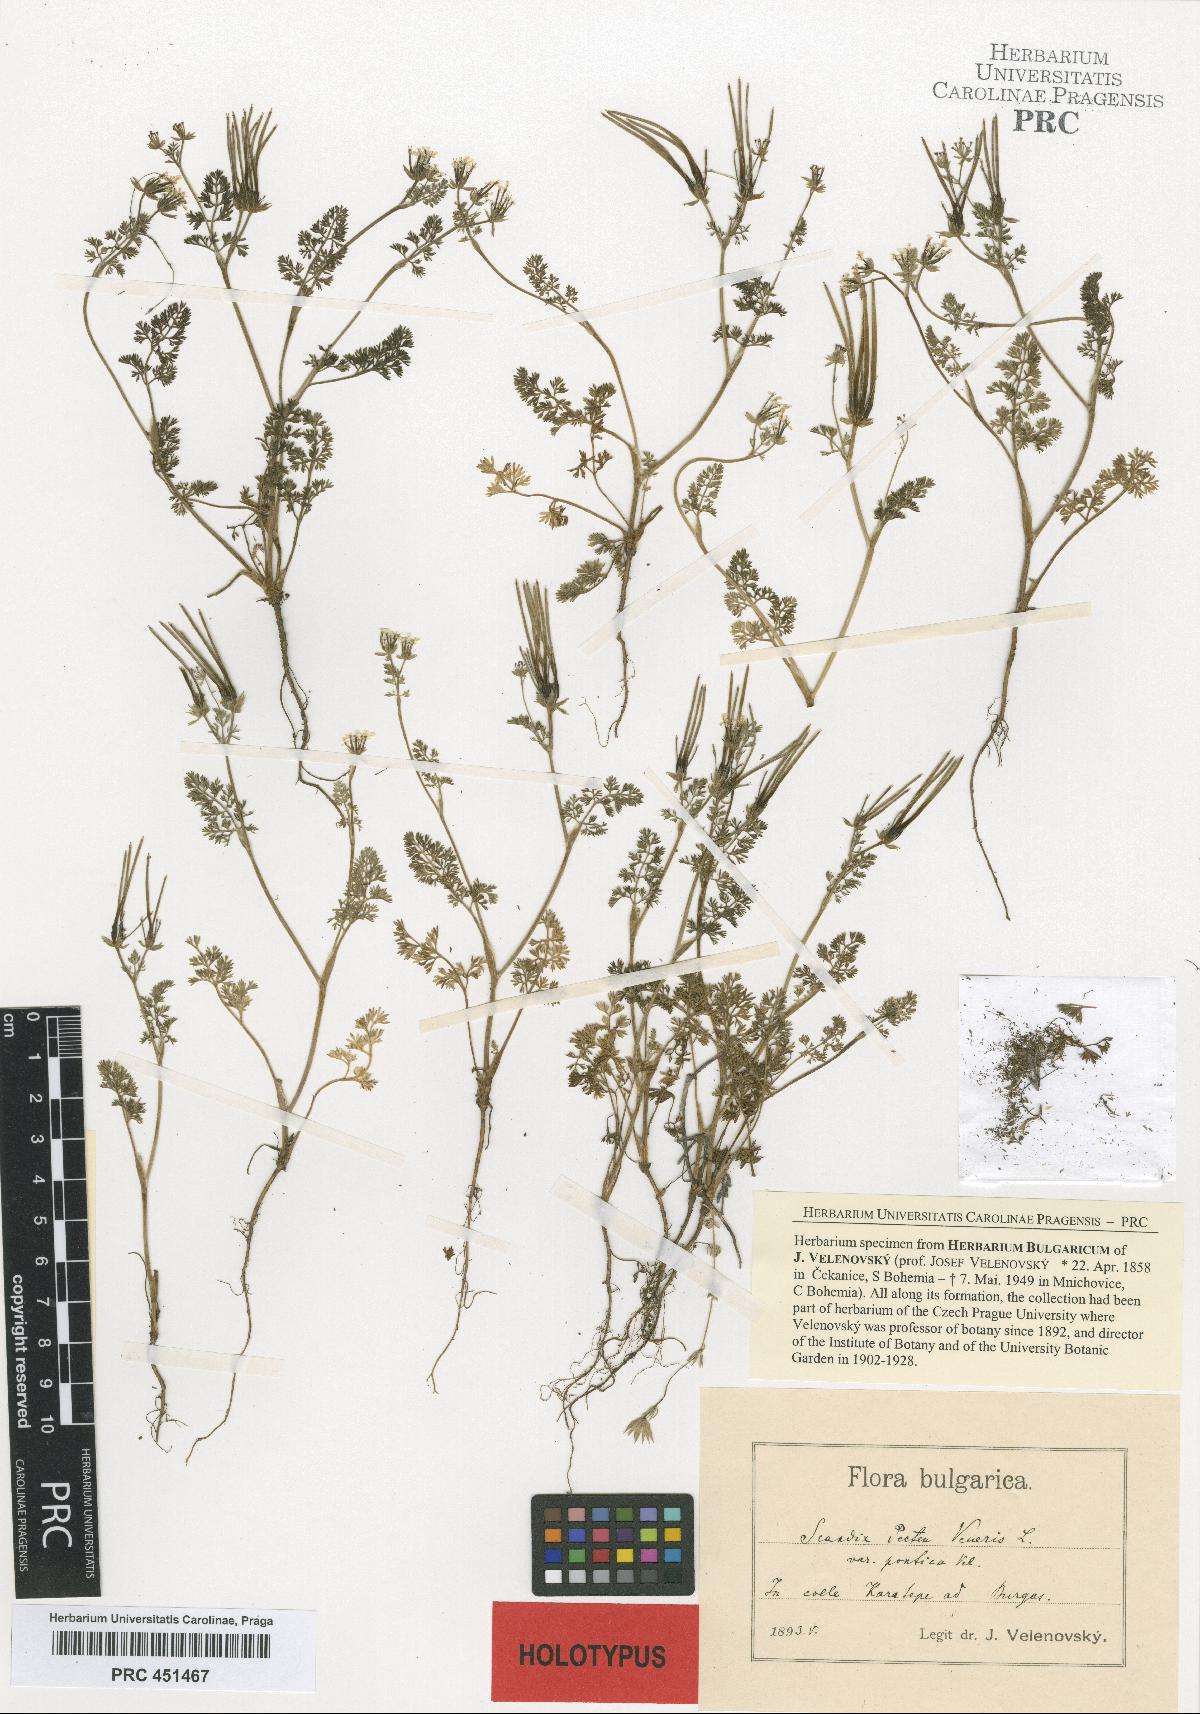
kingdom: Plantae
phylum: Tracheophyta
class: Magnoliopsida
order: Apiales
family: Apiaceae
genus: Scandix
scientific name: Scandix pecten-veneris
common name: Shepherd's-needle
